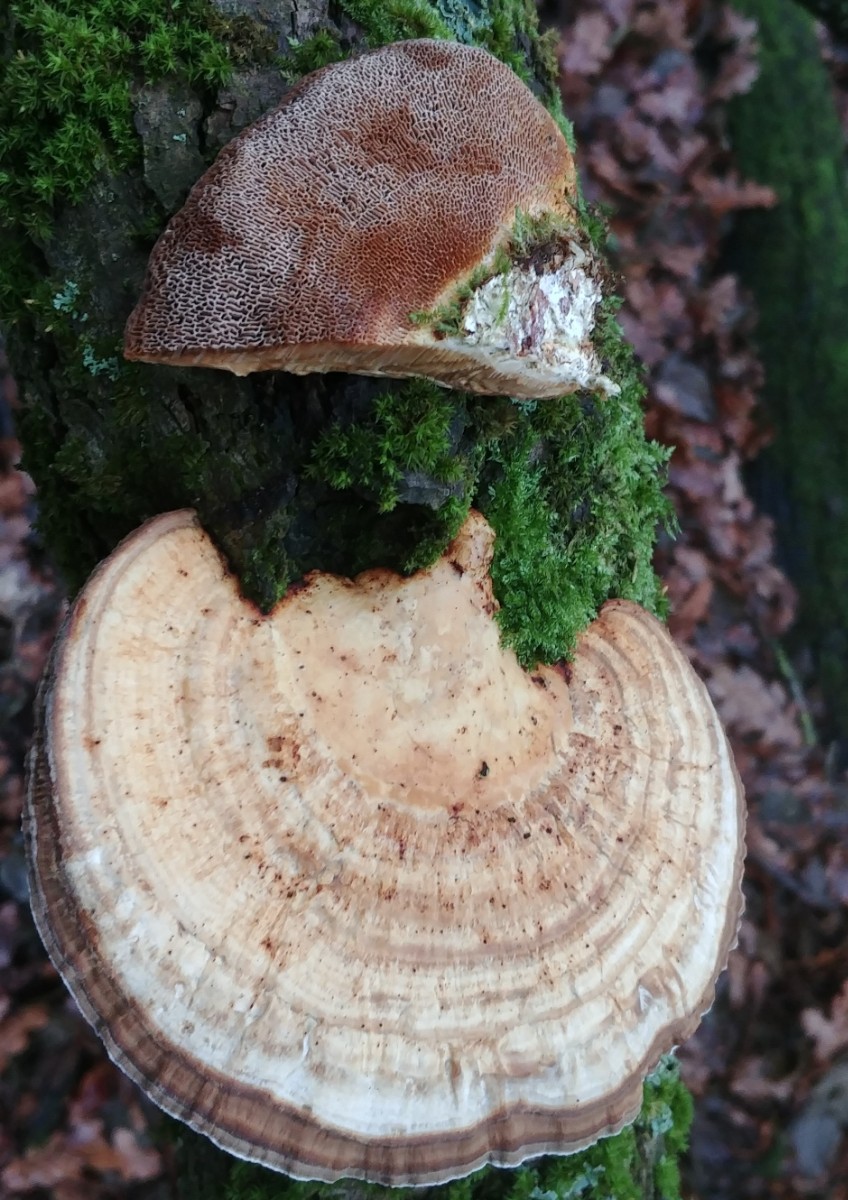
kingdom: Fungi
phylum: Basidiomycota
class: Agaricomycetes
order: Polyporales
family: Polyporaceae
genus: Daedaleopsis
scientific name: Daedaleopsis confragosa
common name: rødmende læderporesvamp
